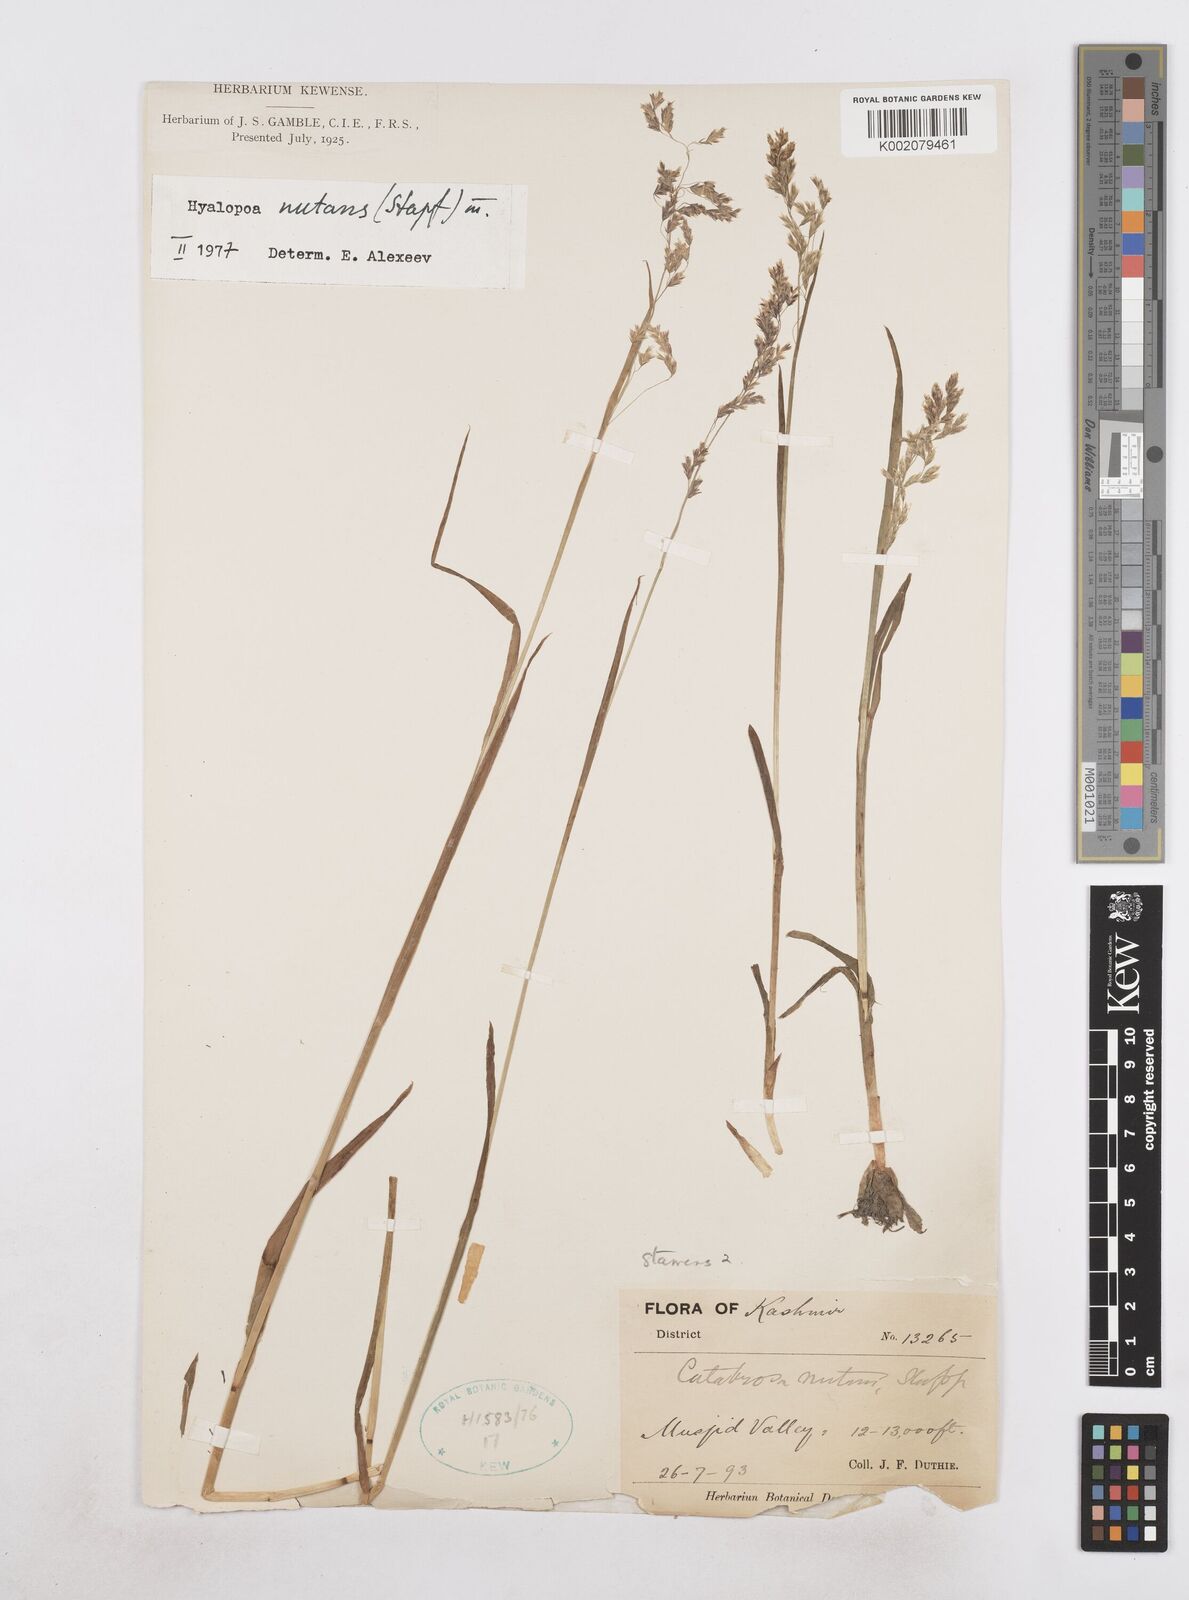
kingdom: Plantae
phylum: Tracheophyta
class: Liliopsida
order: Poales
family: Poaceae
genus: Hyalopoa
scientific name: Hyalopoa nutans
